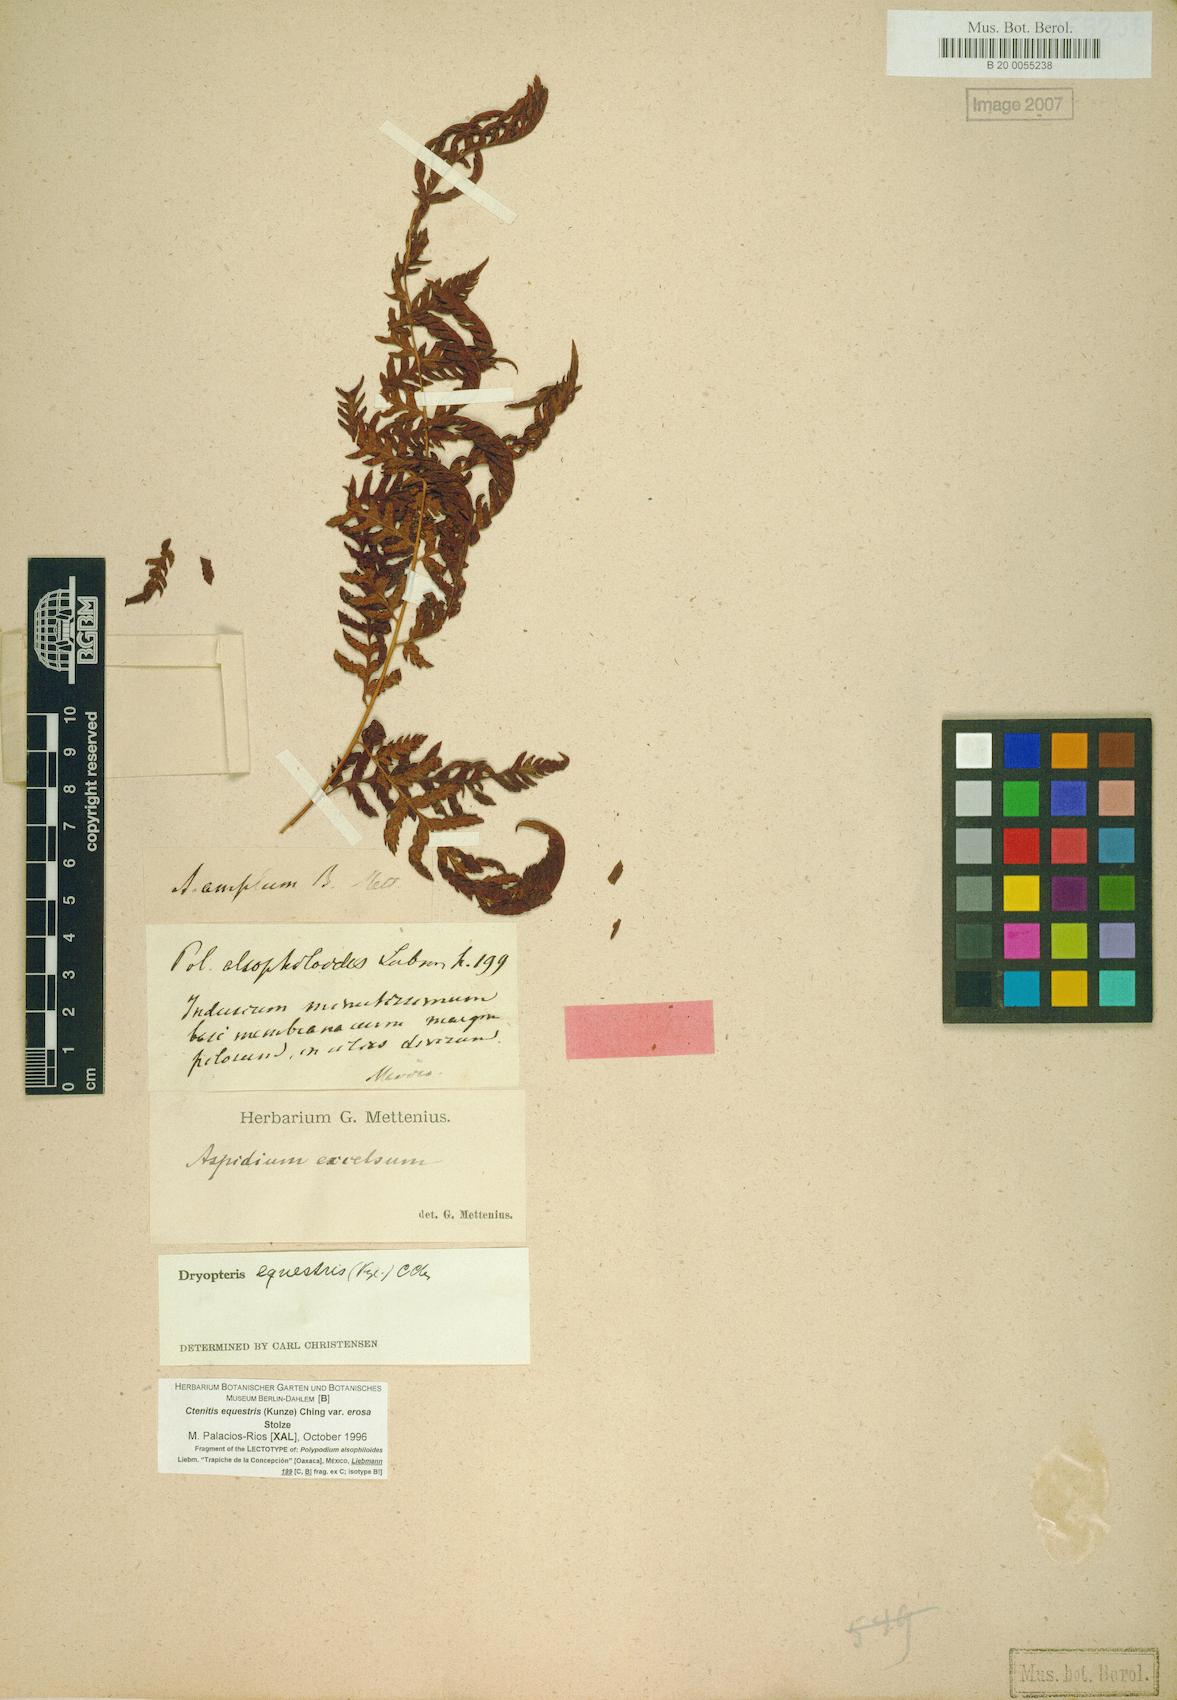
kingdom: Plantae
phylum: Tracheophyta
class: Polypodiopsida
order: Polypodiales
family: Dryopteridaceae
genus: Ctenitis
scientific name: Ctenitis equestris
